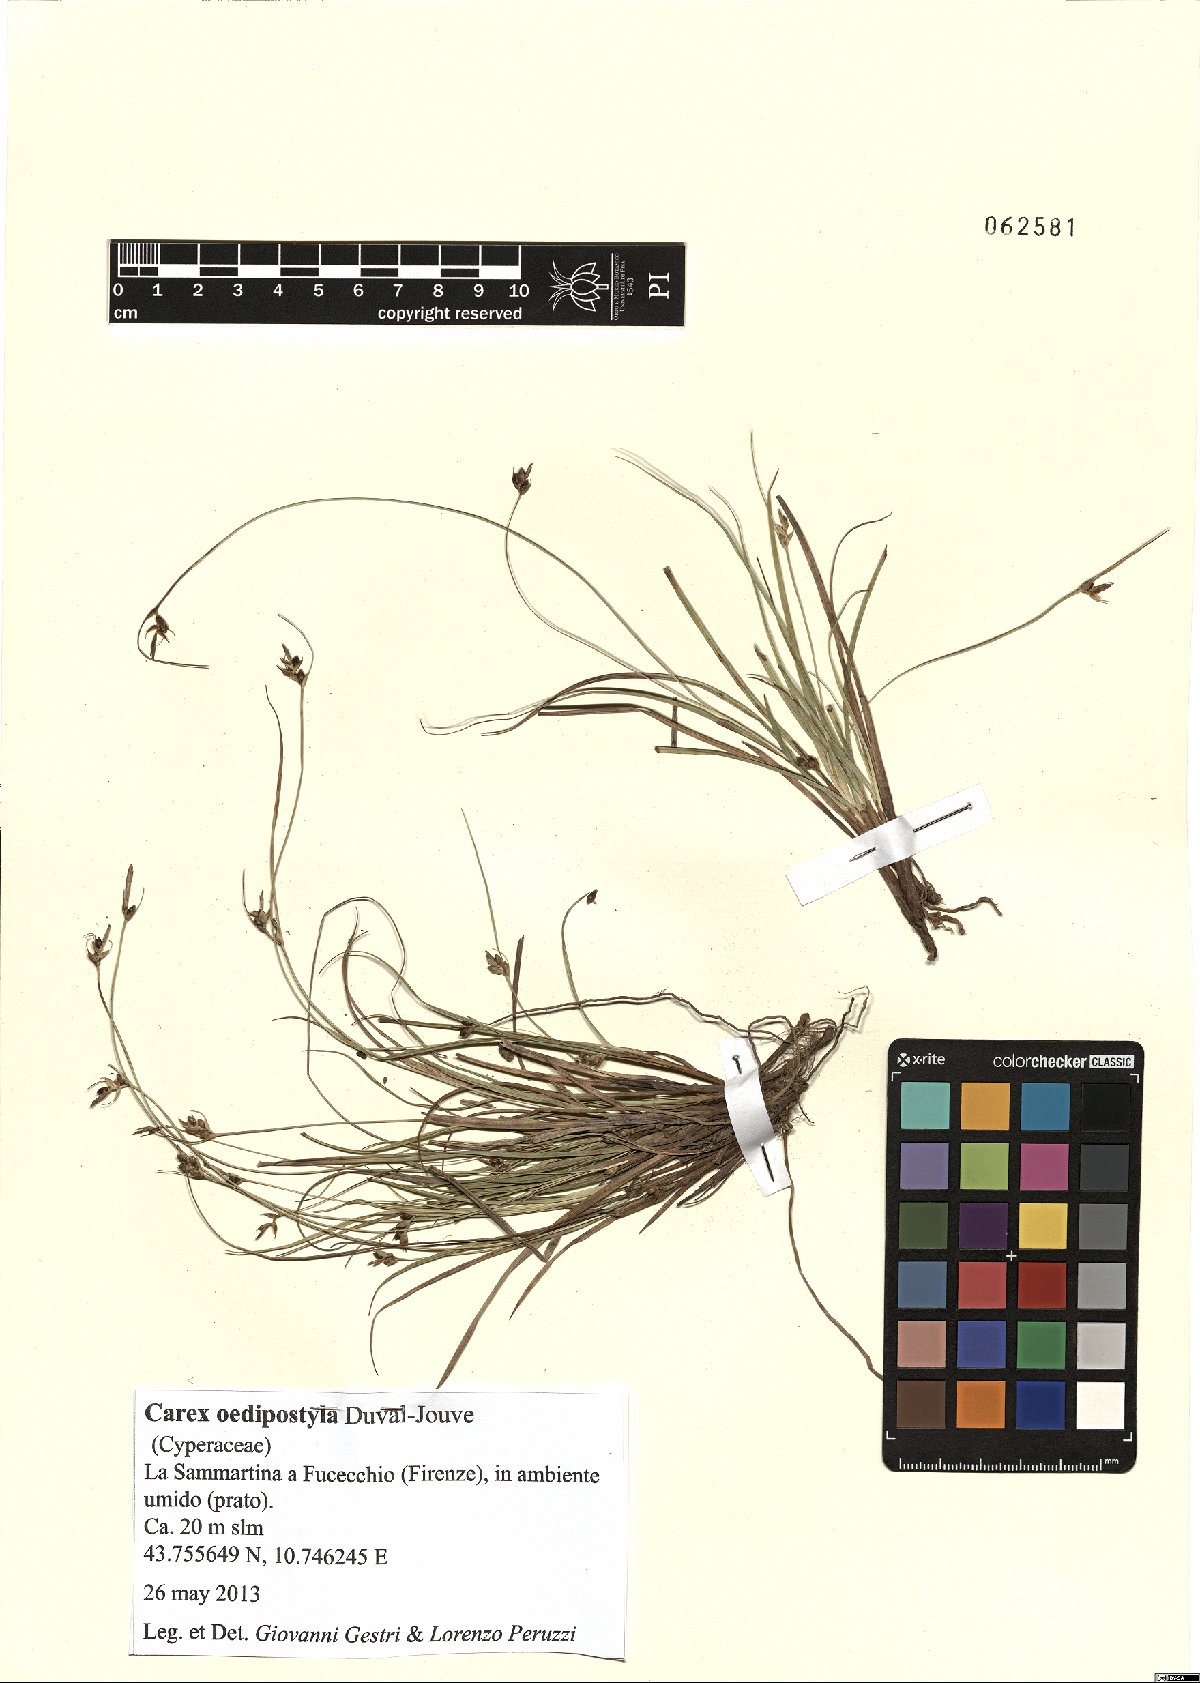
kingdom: Plantae
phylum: Tracheophyta
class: Liliopsida
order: Poales
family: Cyperaceae
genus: Carex
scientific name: Carex oedipostyla
